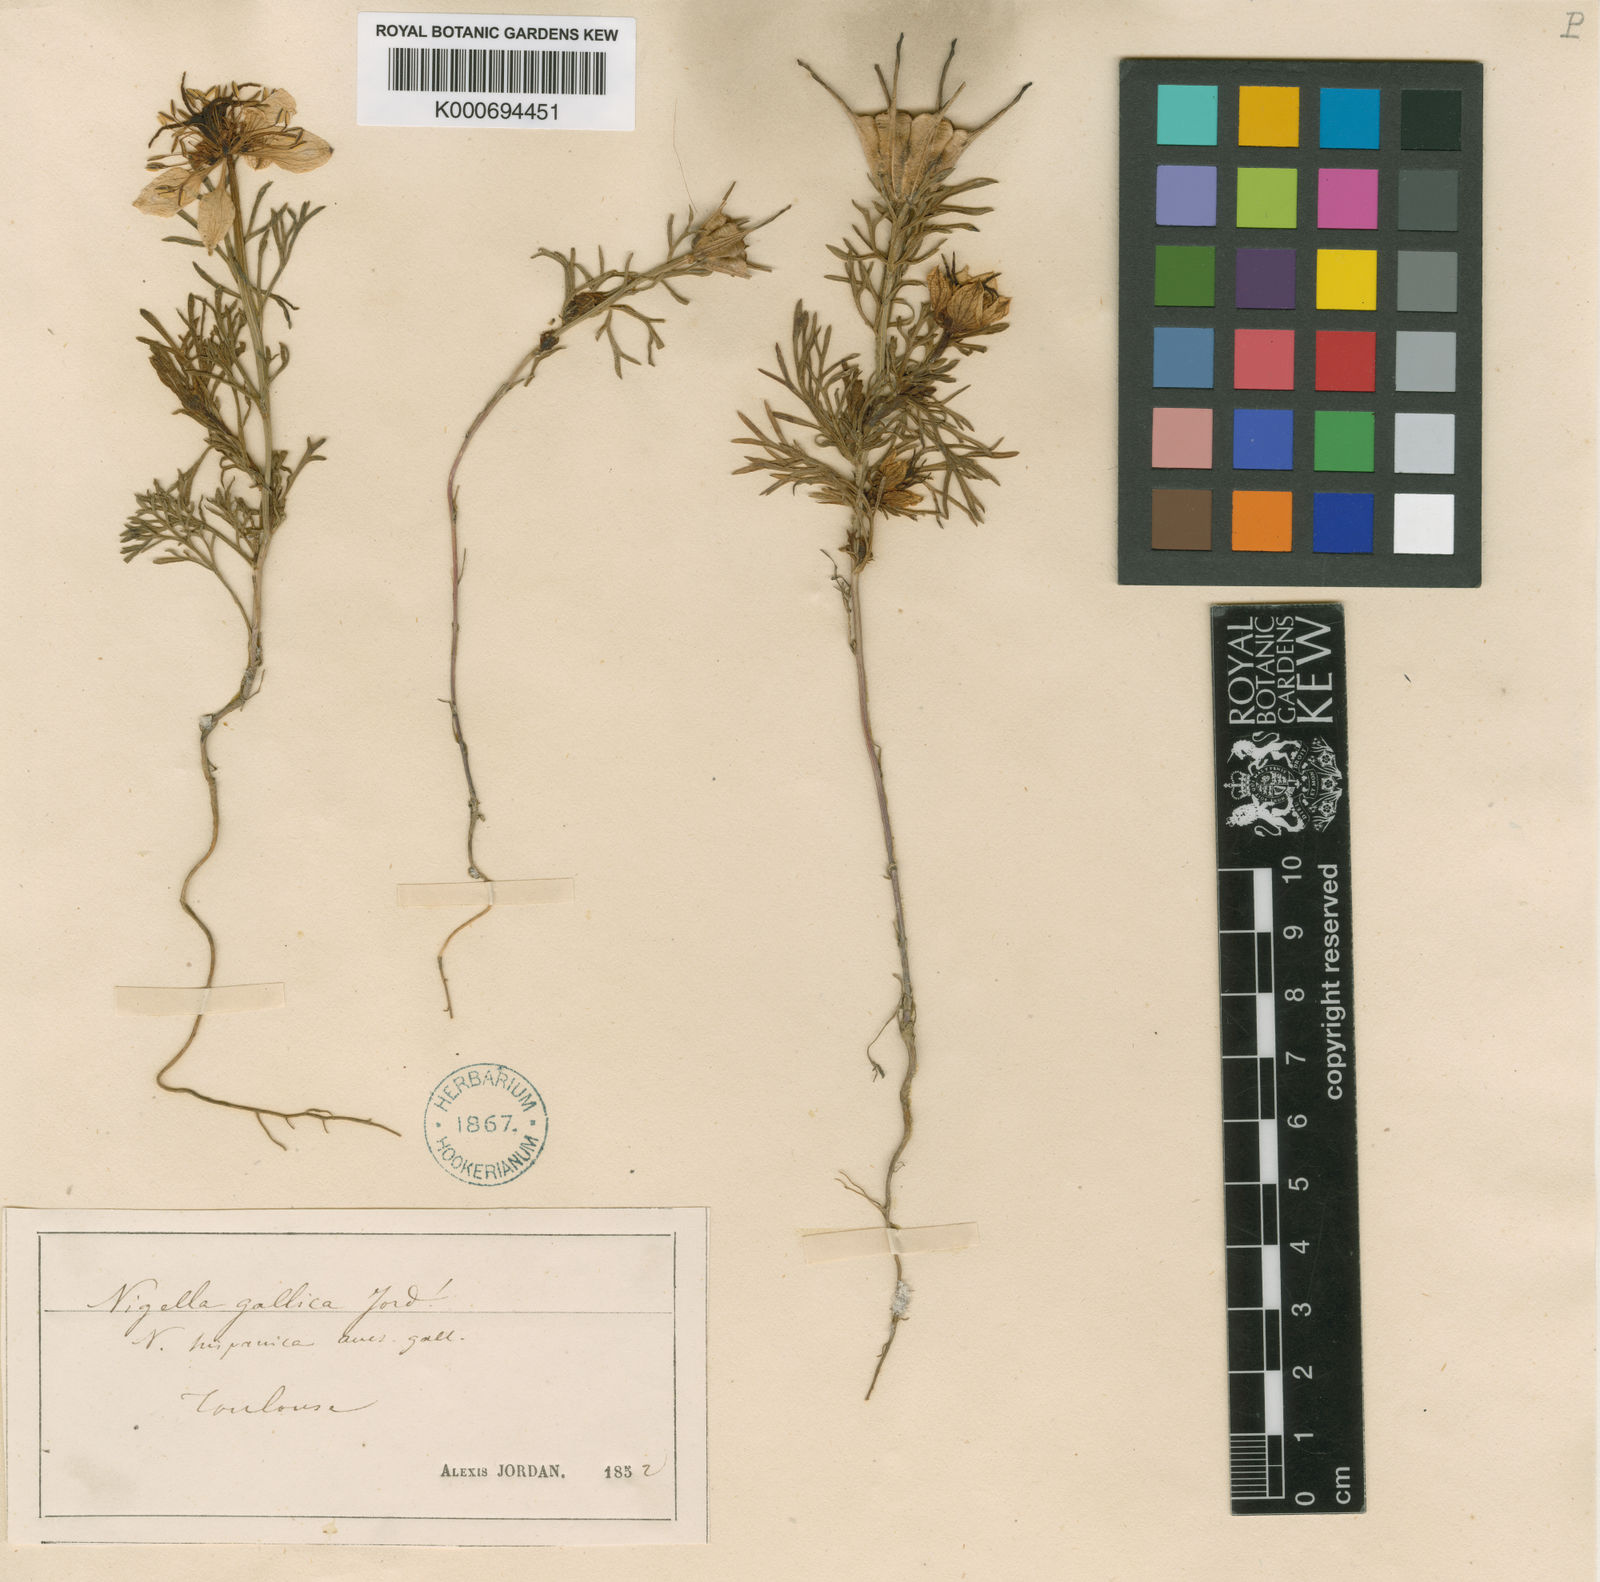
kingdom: Plantae
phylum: Tracheophyta
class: Magnoliopsida
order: Ranunculales
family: Ranunculaceae
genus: Nigella
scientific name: Nigella gallica
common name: Pale fennel-flower
